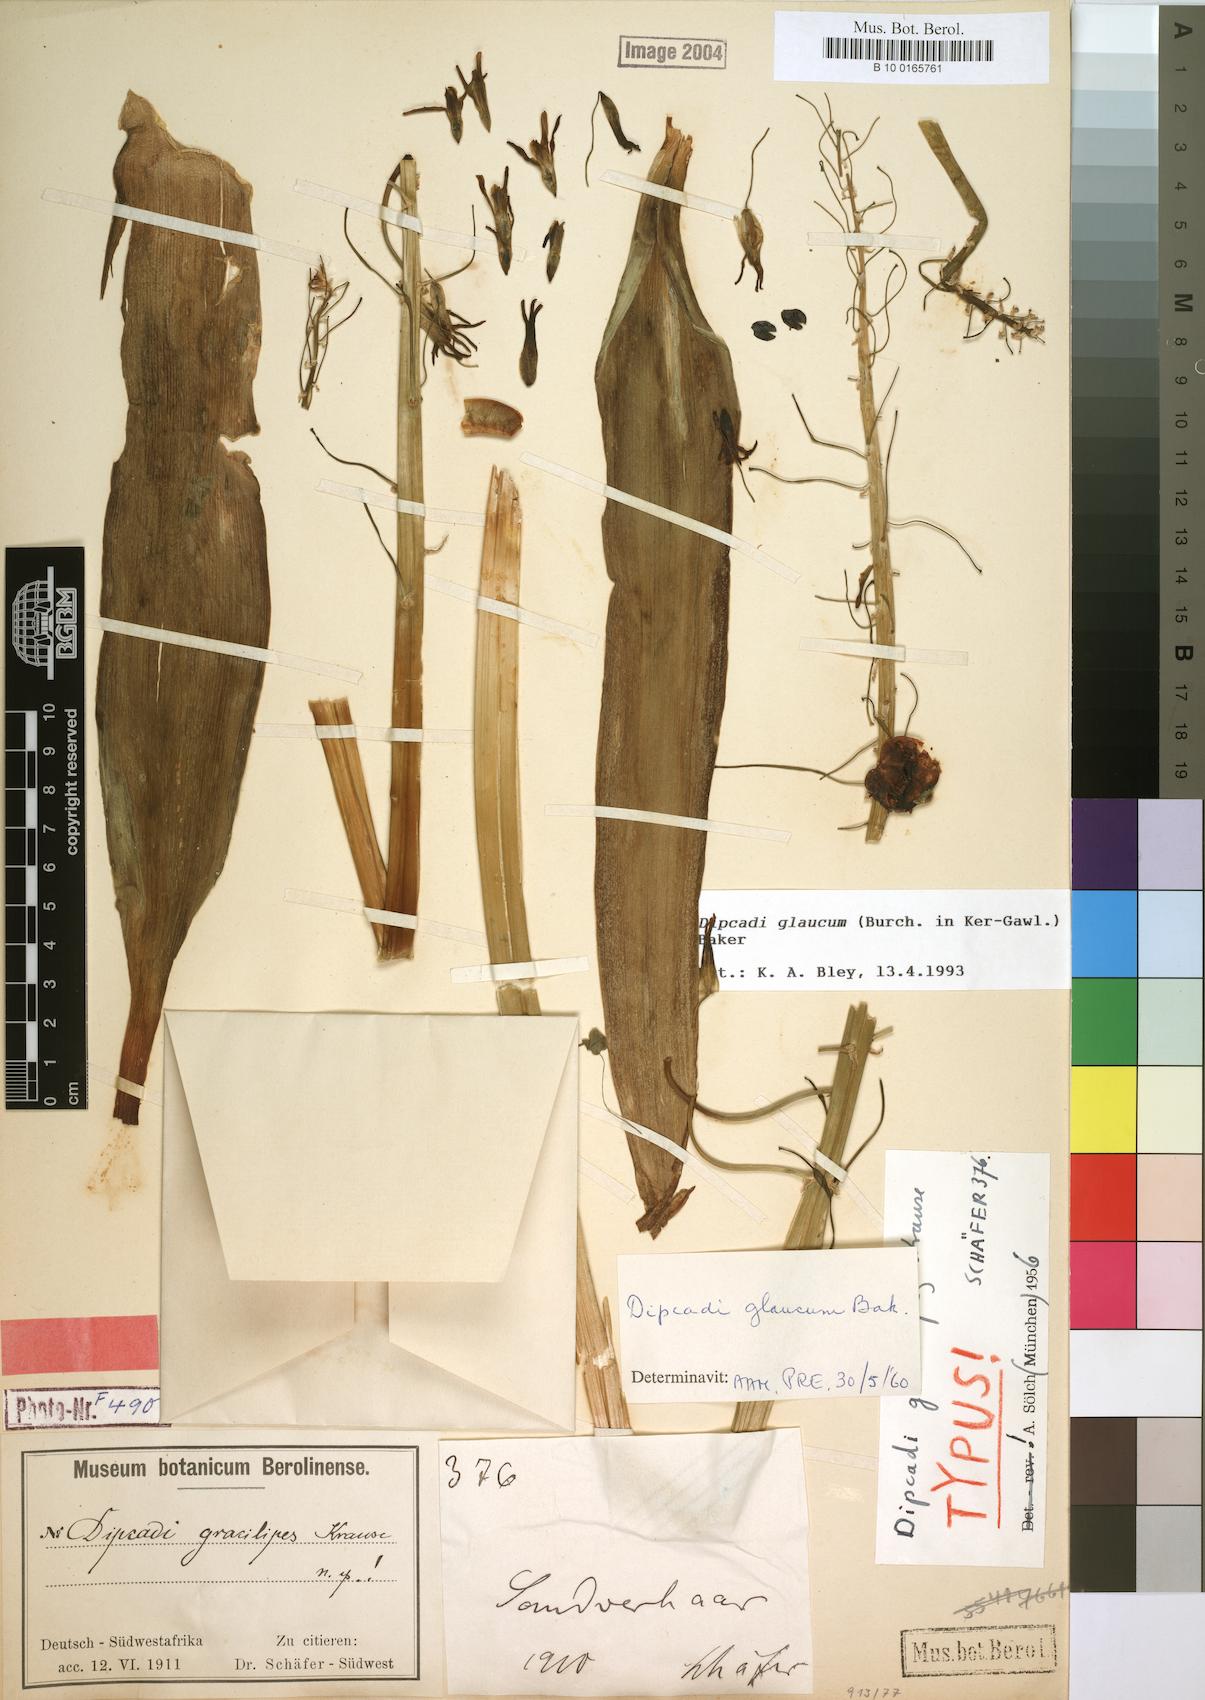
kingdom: Plantae
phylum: Tracheophyta
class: Liliopsida
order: Asparagales
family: Asparagaceae
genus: Dipcadi
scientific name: Dipcadi glaucum
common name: Wild onion
